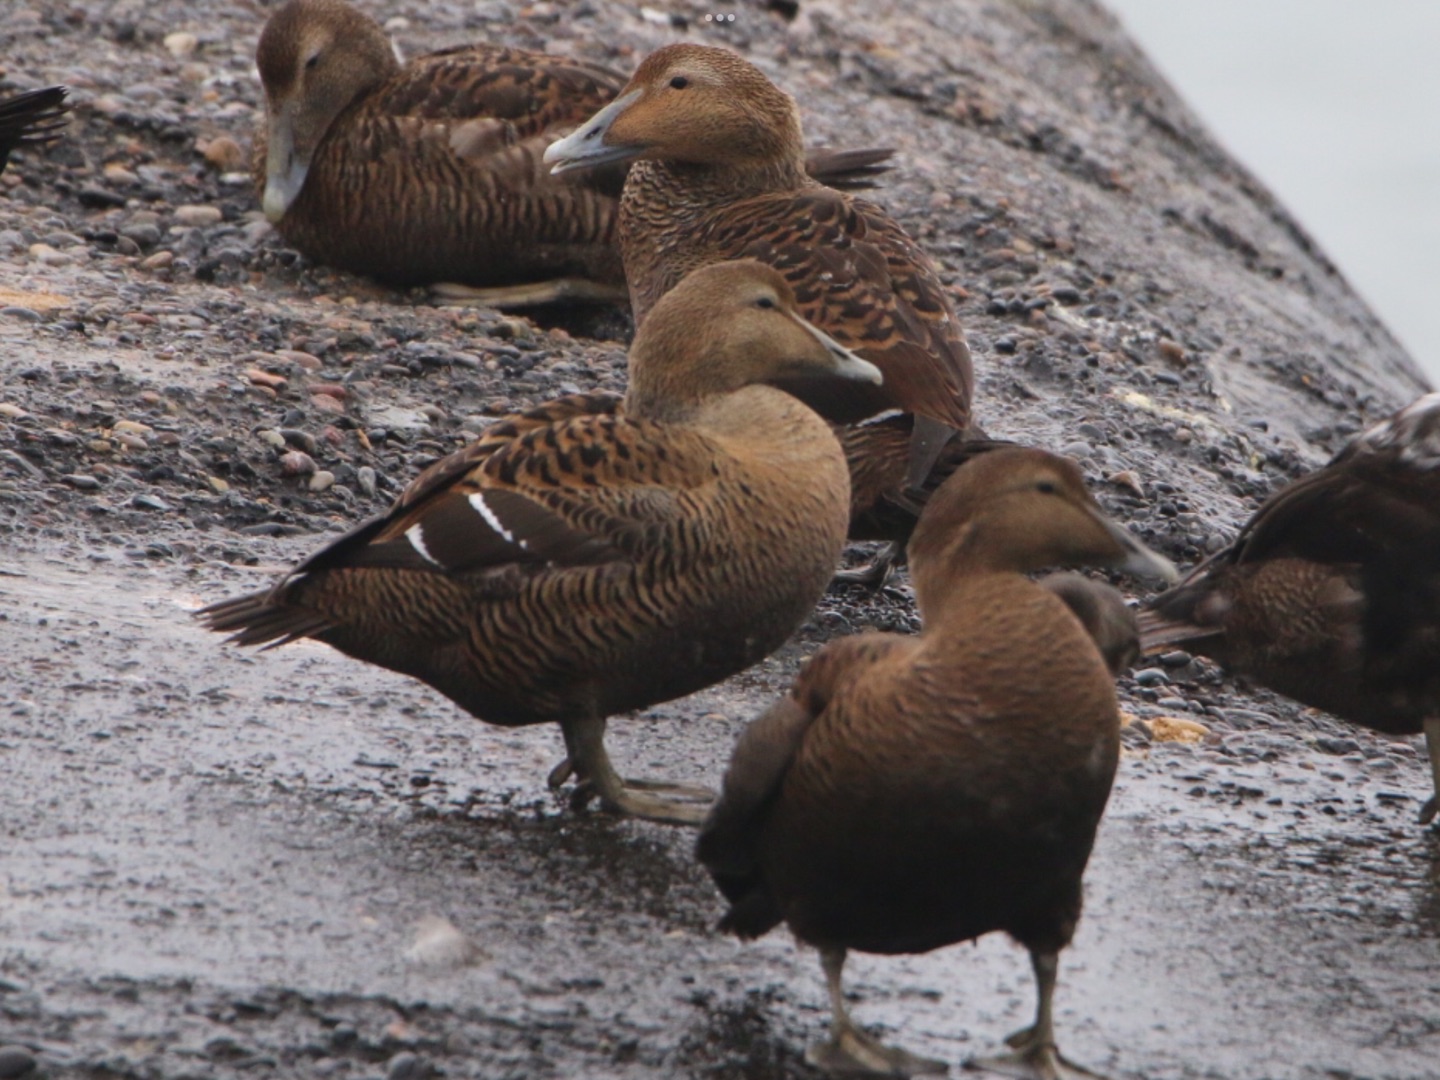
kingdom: Animalia
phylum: Chordata
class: Aves
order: Anseriformes
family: Anatidae
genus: Somateria
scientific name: Somateria mollissima
